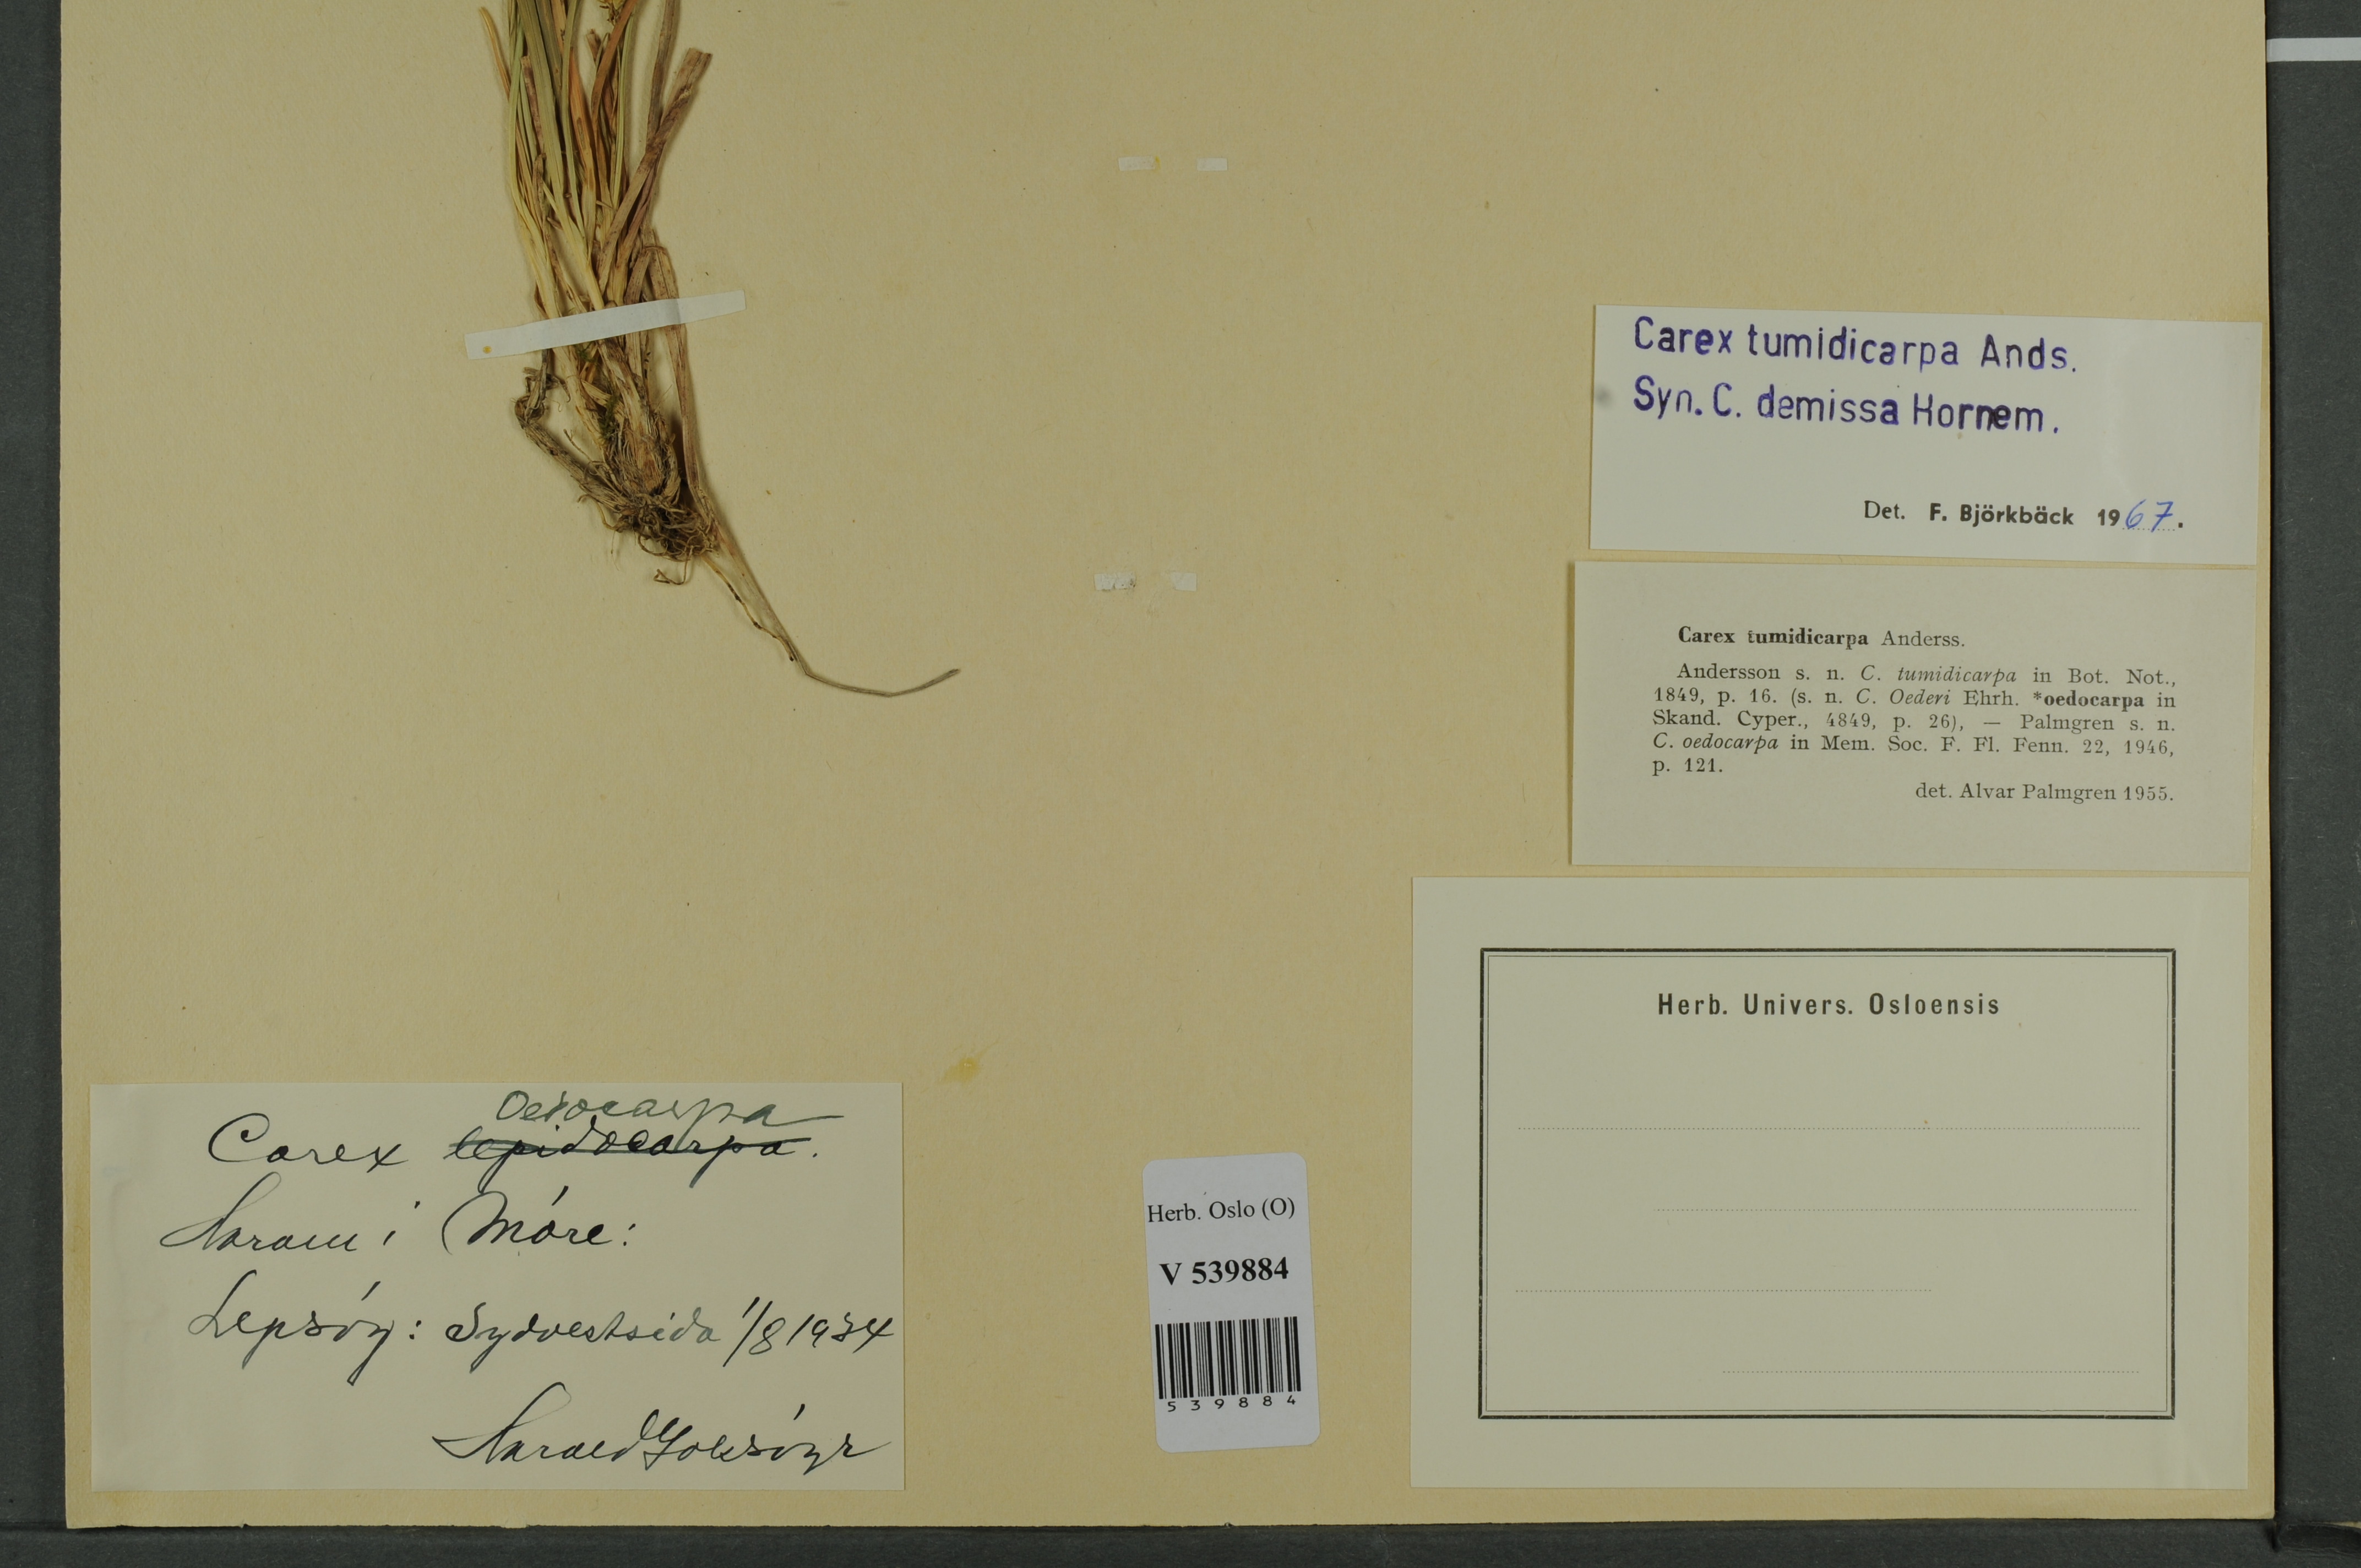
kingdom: Plantae
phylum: Tracheophyta
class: Liliopsida
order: Poales
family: Cyperaceae
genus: Carex
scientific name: Carex demissa
